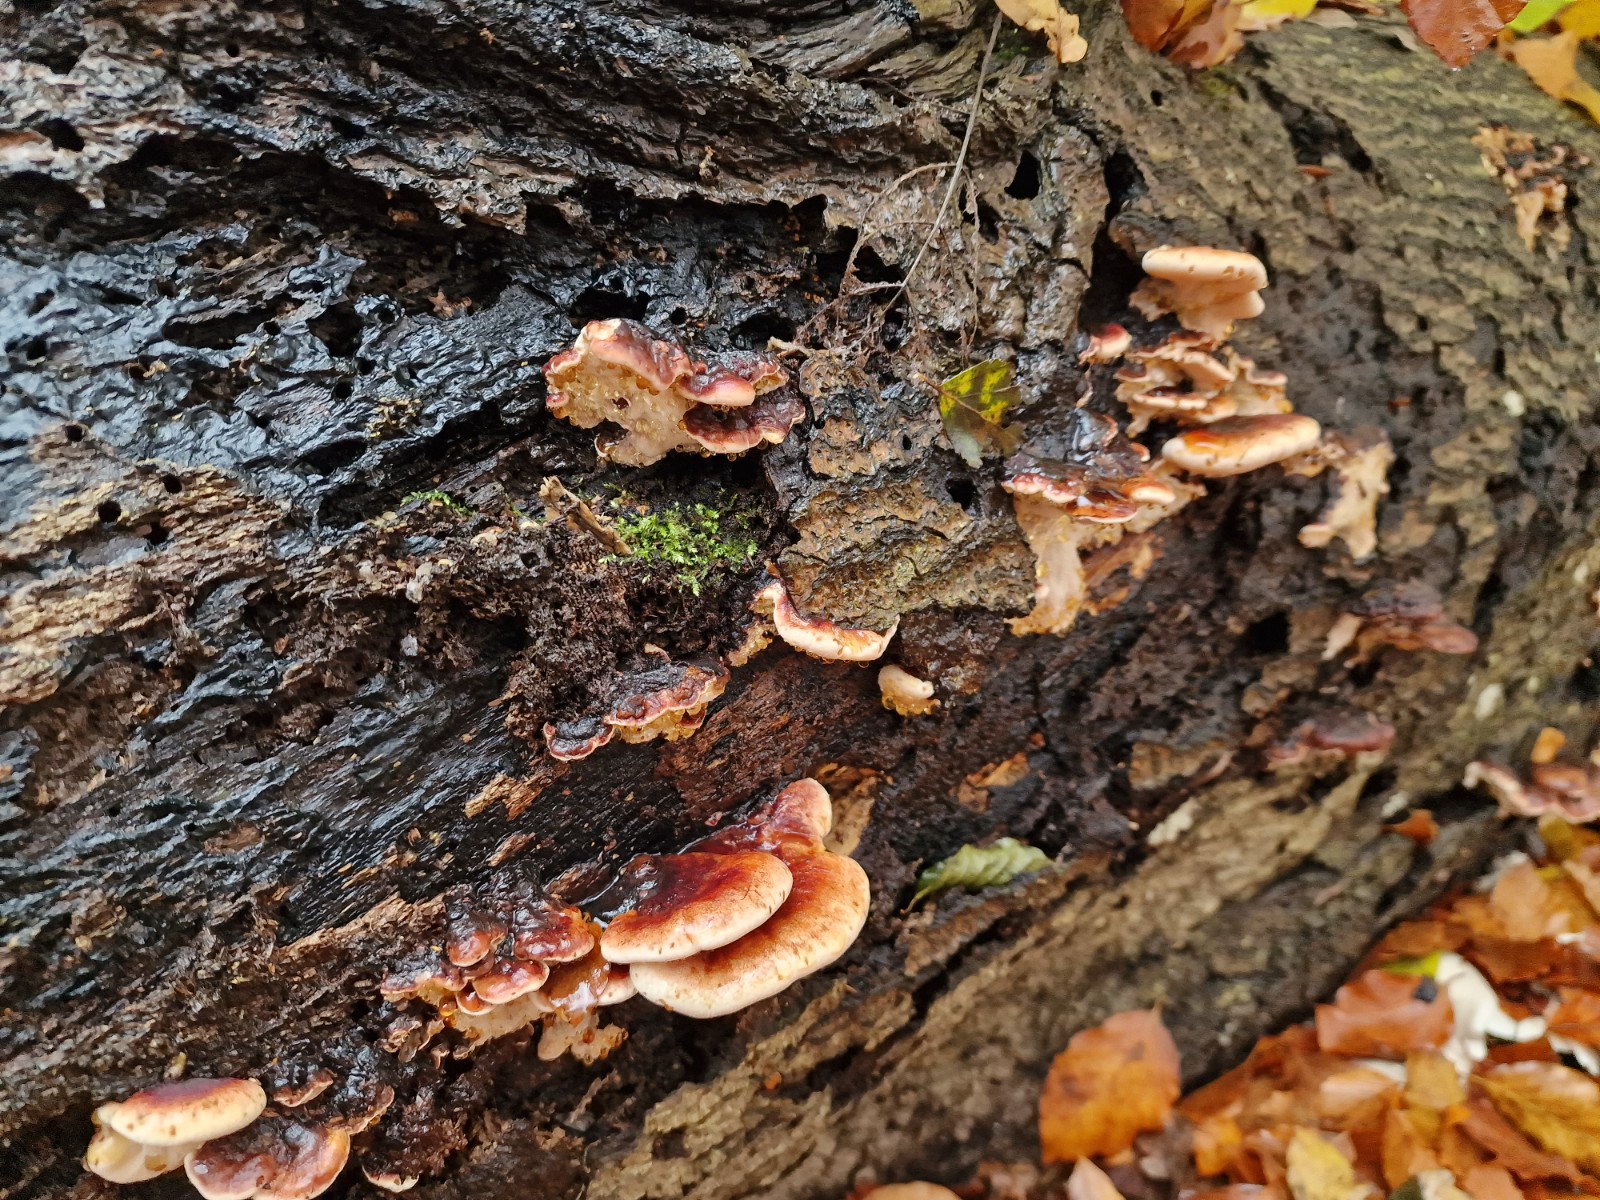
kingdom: Fungi
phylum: Basidiomycota
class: Agaricomycetes
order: Polyporales
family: Ischnodermataceae
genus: Ischnoderma
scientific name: Ischnoderma resinosum
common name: løv-tjæreporesvamp
